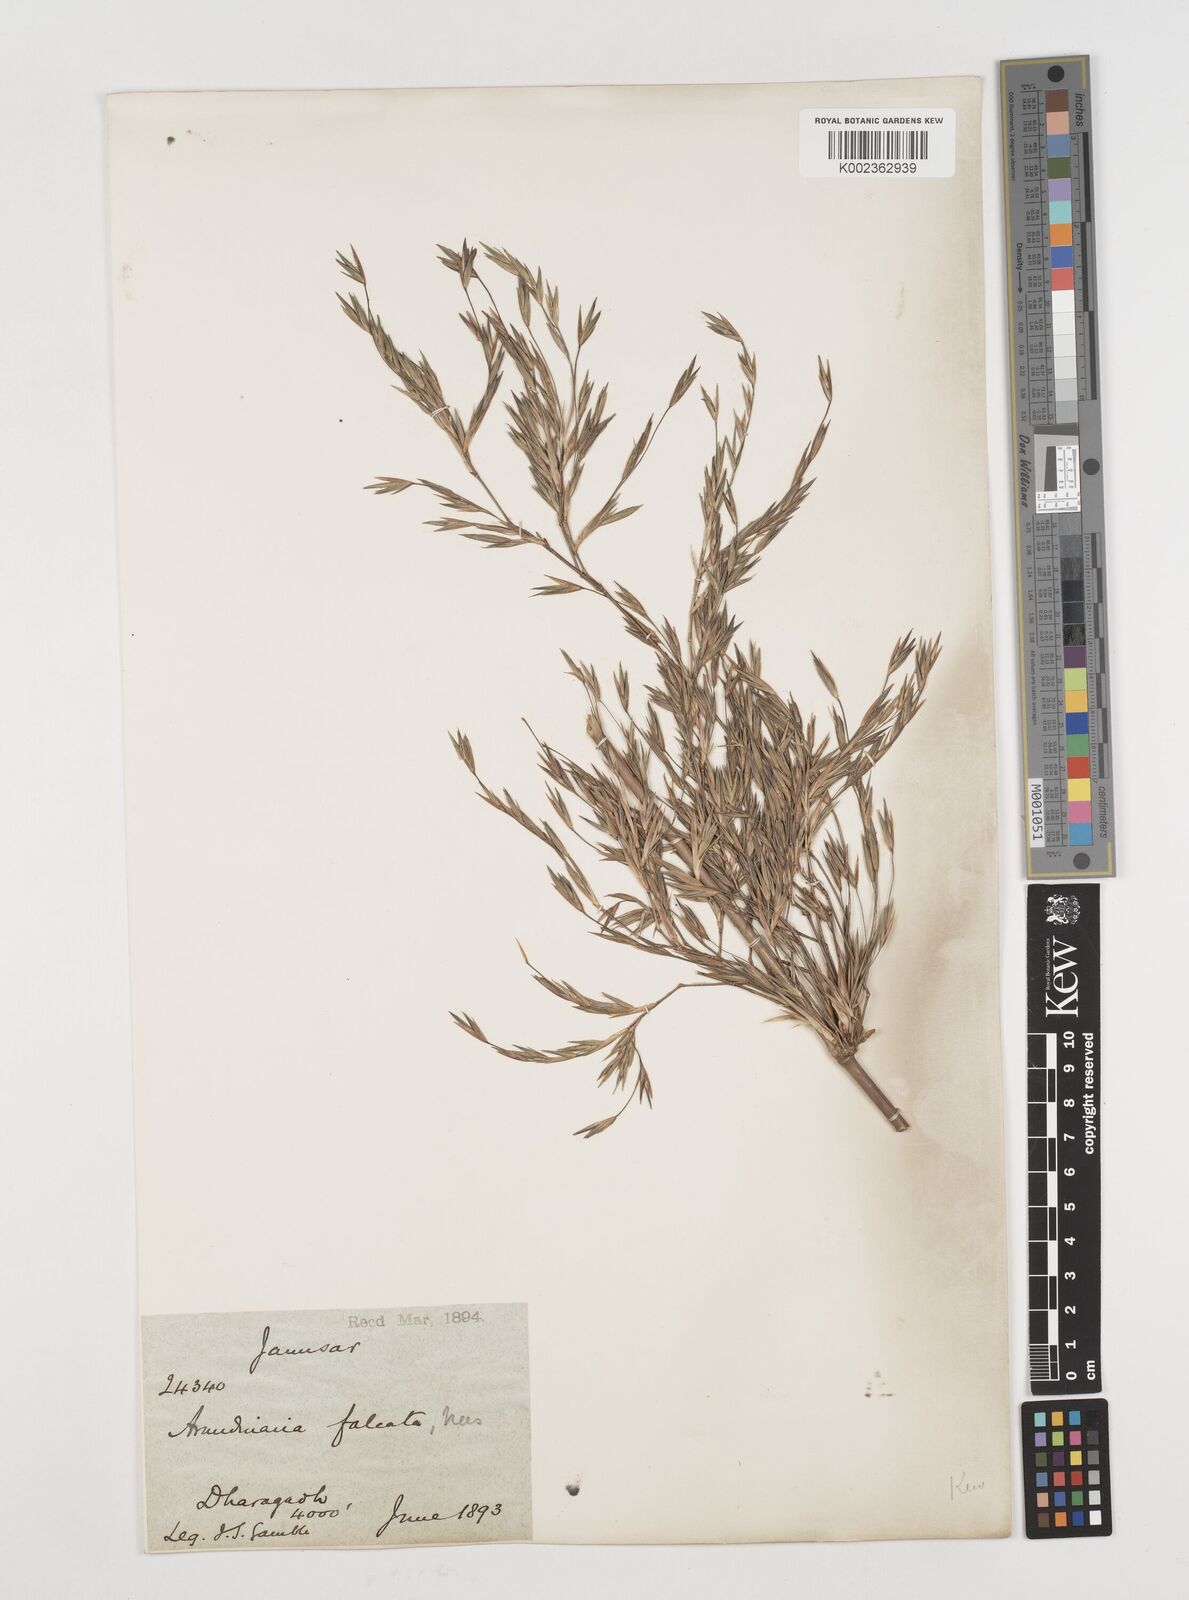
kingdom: Plantae
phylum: Tracheophyta
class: Liliopsida
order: Poales
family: Poaceae
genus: Drepanostachyum
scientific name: Drepanostachyum falcatum
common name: Himalayan bamboo
